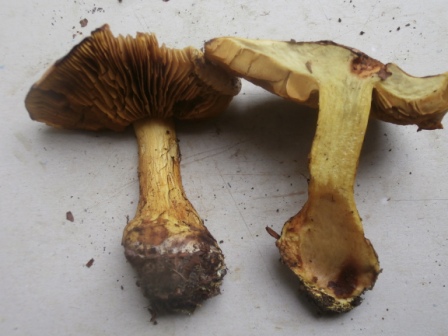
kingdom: Fungi
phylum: Basidiomycota
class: Agaricomycetes
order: Agaricales
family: Cortinariaceae
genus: Calonarius
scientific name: Calonarius splendens
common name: sirene-slørhat
